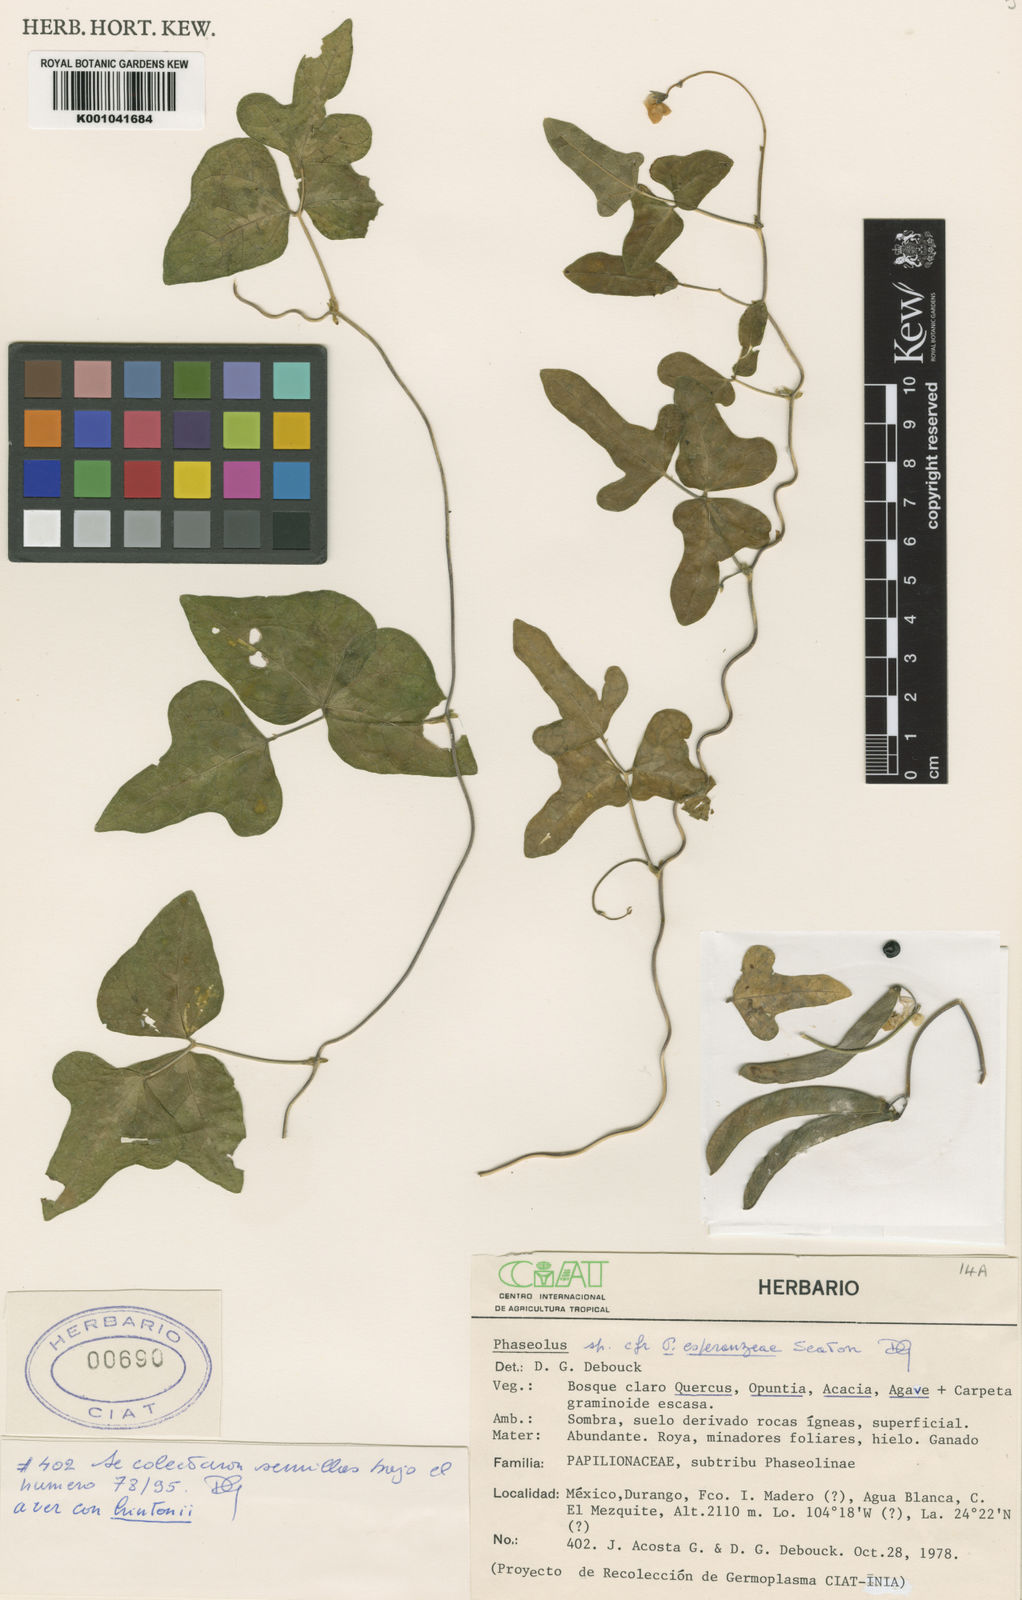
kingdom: Plantae
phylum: Tracheophyta
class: Magnoliopsida
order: Fabales
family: Fabaceae
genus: Phaseolus
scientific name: Phaseolus magnilobatus
